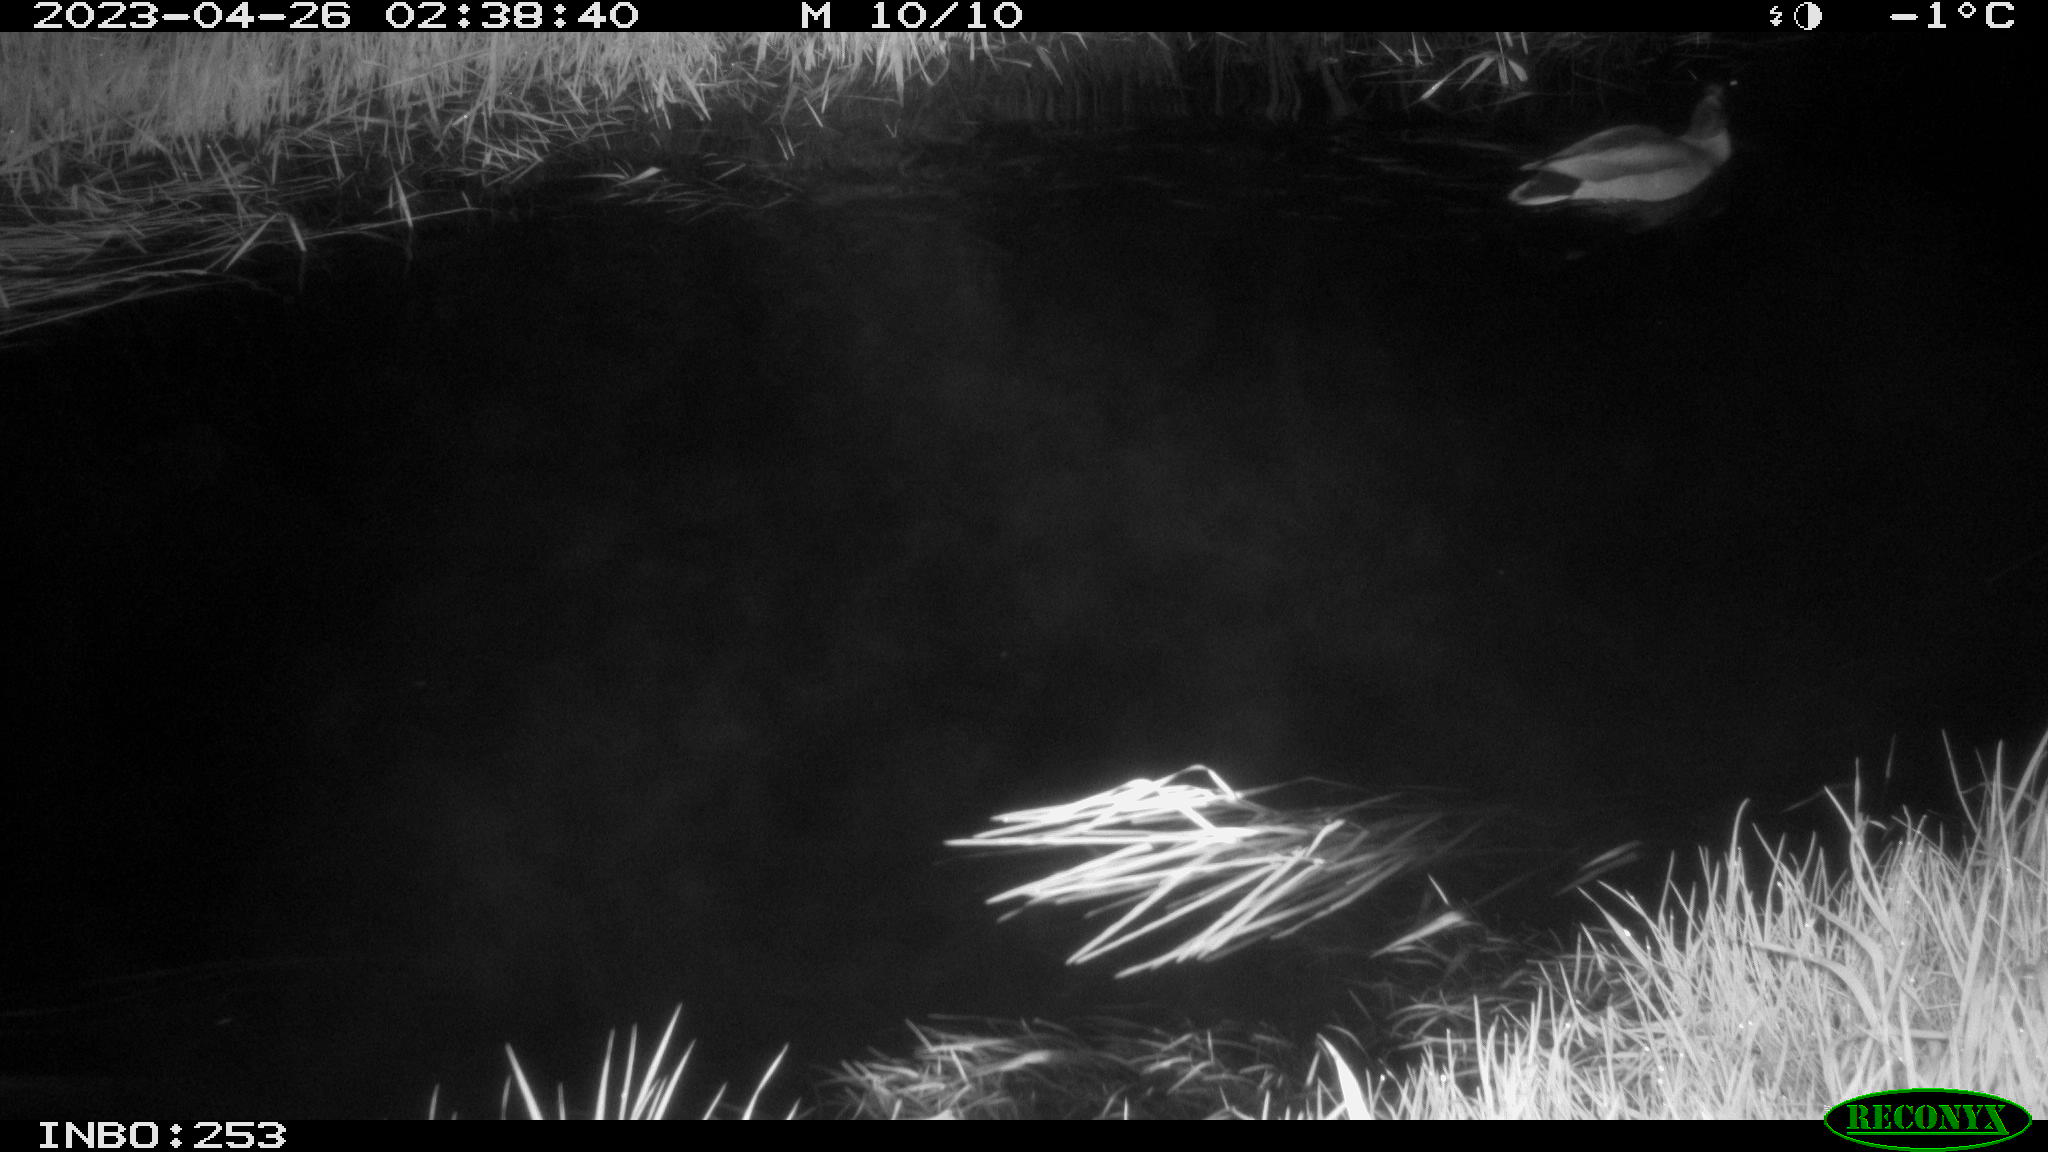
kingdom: Animalia
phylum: Chordata
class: Aves
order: Anseriformes
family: Anatidae
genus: Anas
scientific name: Anas
